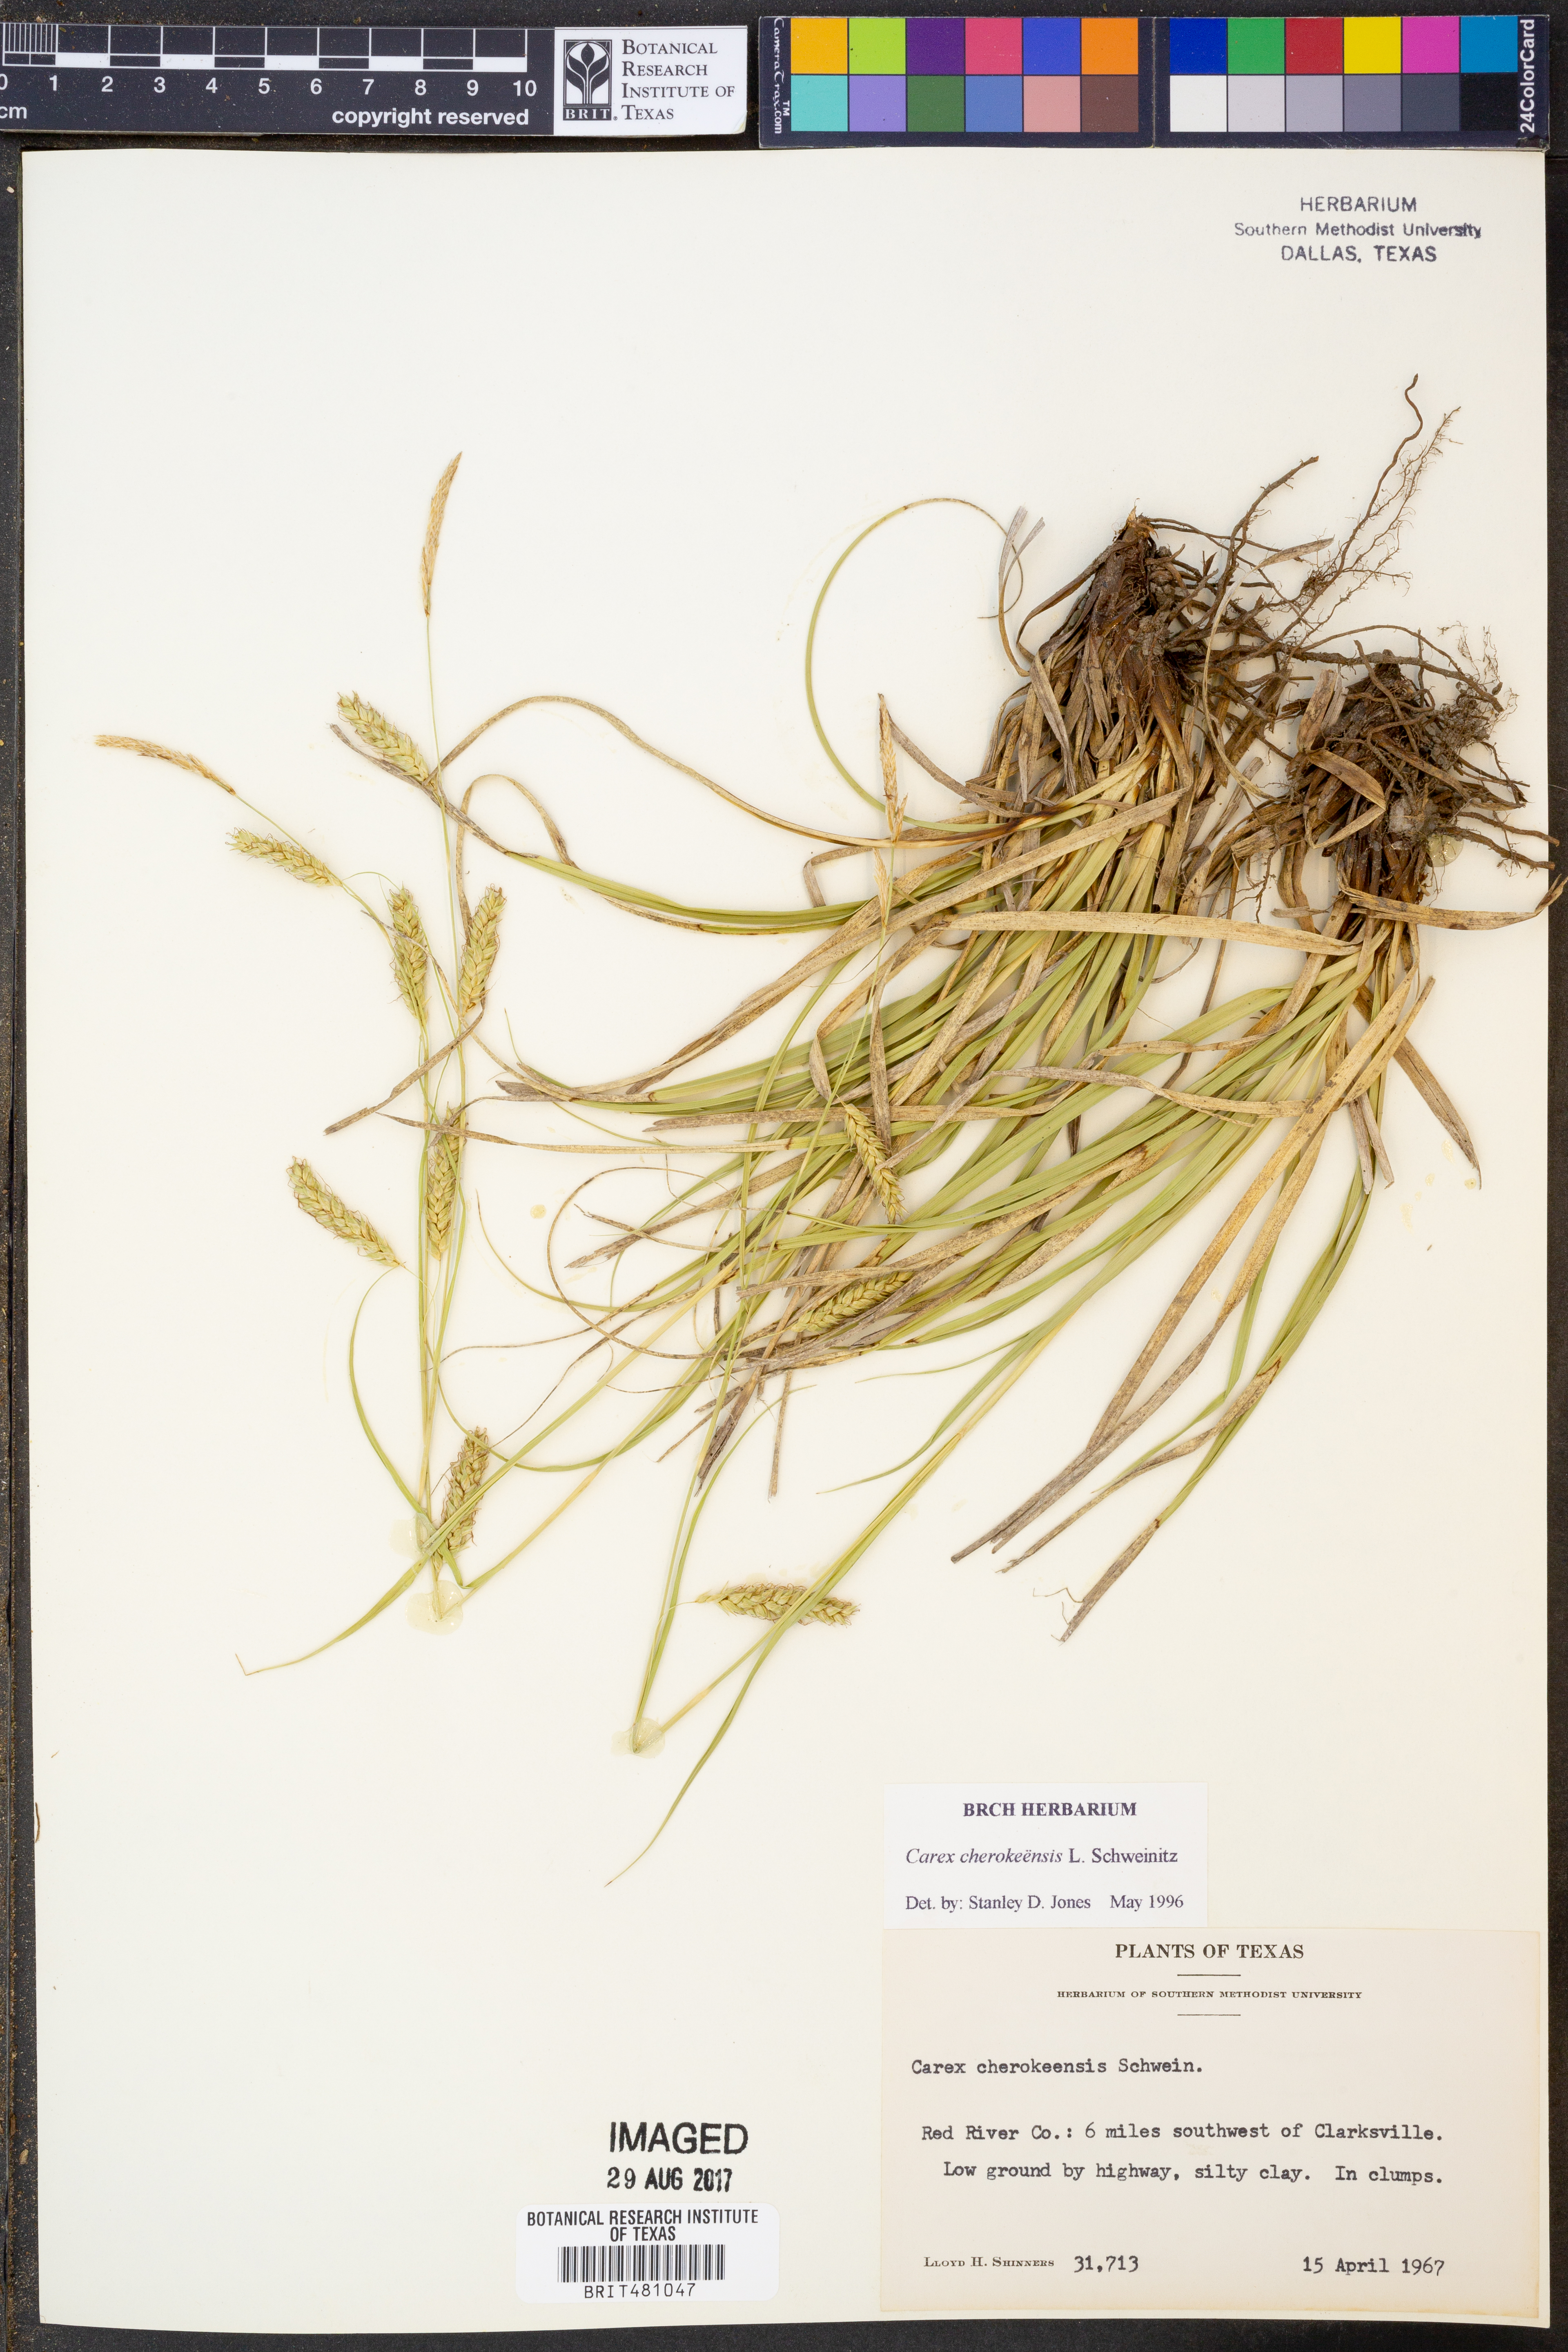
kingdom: Plantae
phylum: Tracheophyta
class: Liliopsida
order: Poales
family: Cyperaceae
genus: Carex
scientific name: Carex cherokeensis
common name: Cherokee sedge
